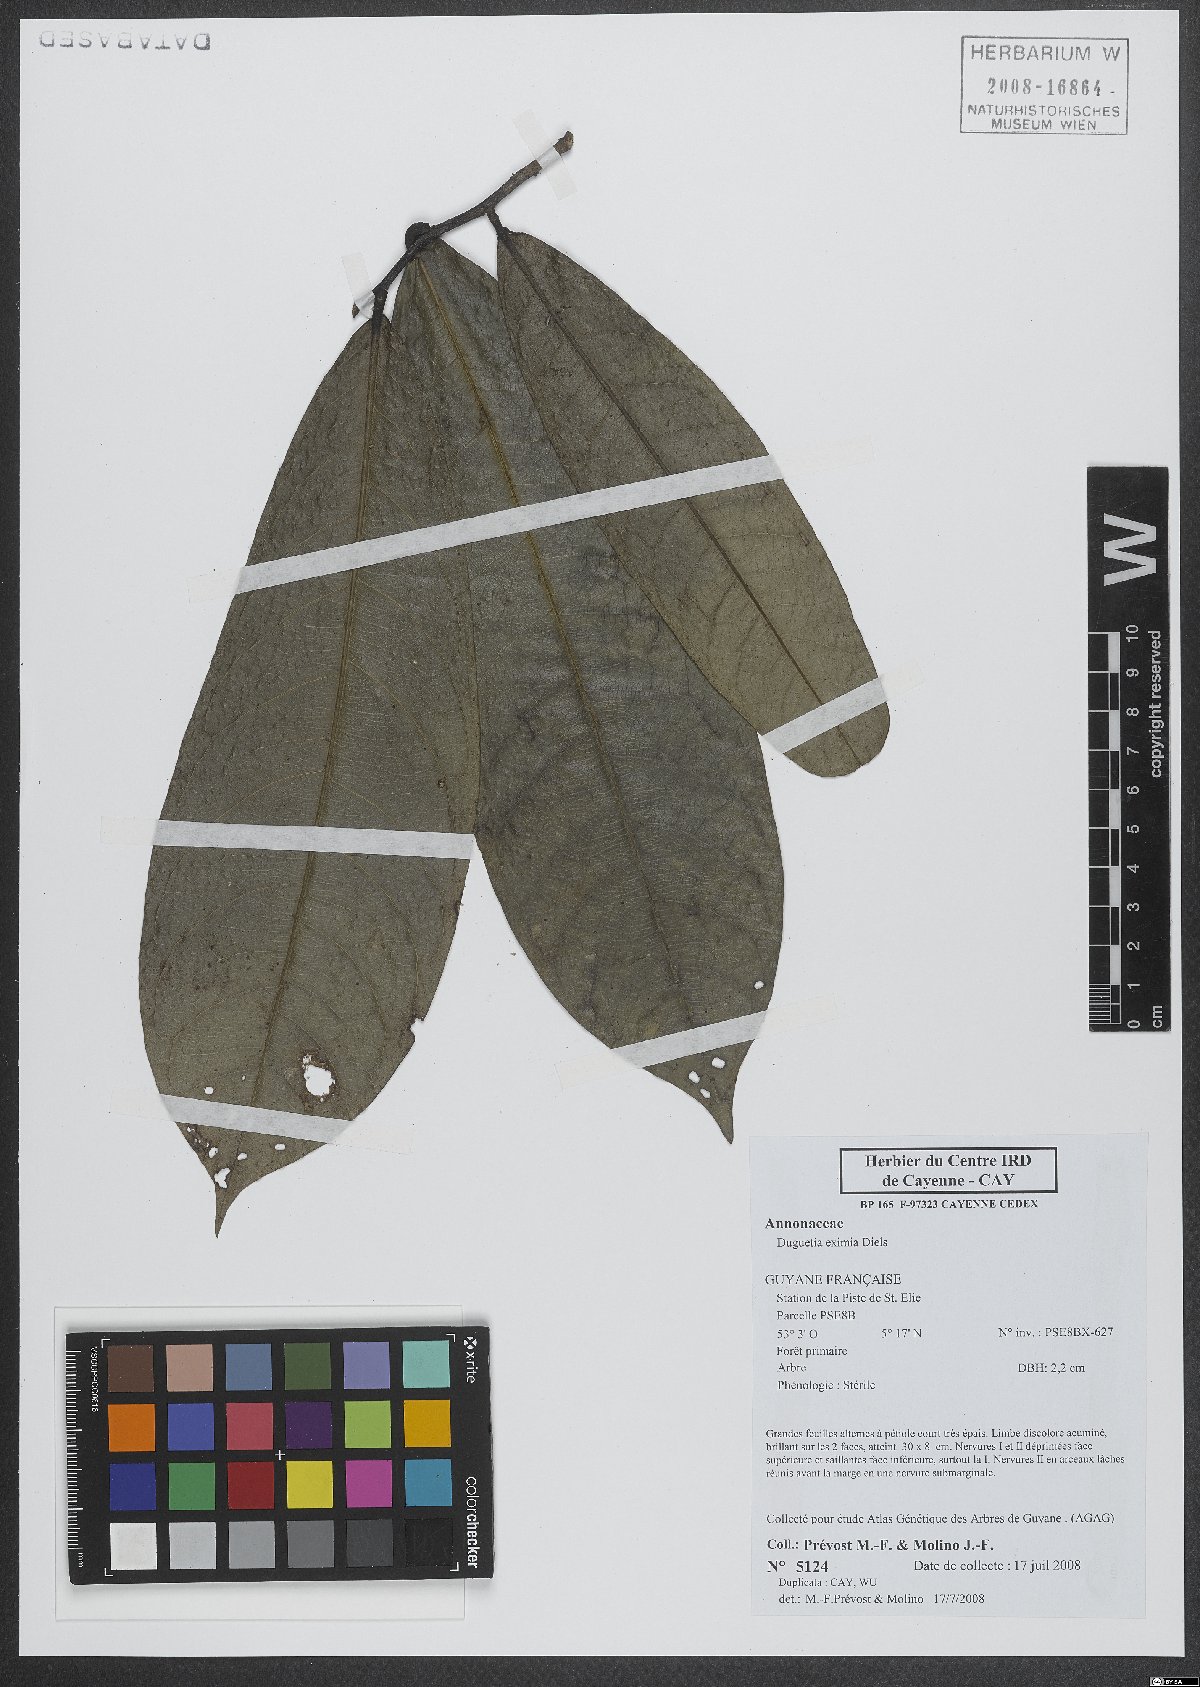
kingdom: Plantae
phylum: Tracheophyta
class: Magnoliopsida
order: Magnoliales
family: Annonaceae
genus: Duguetia
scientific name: Duguetia eximia
